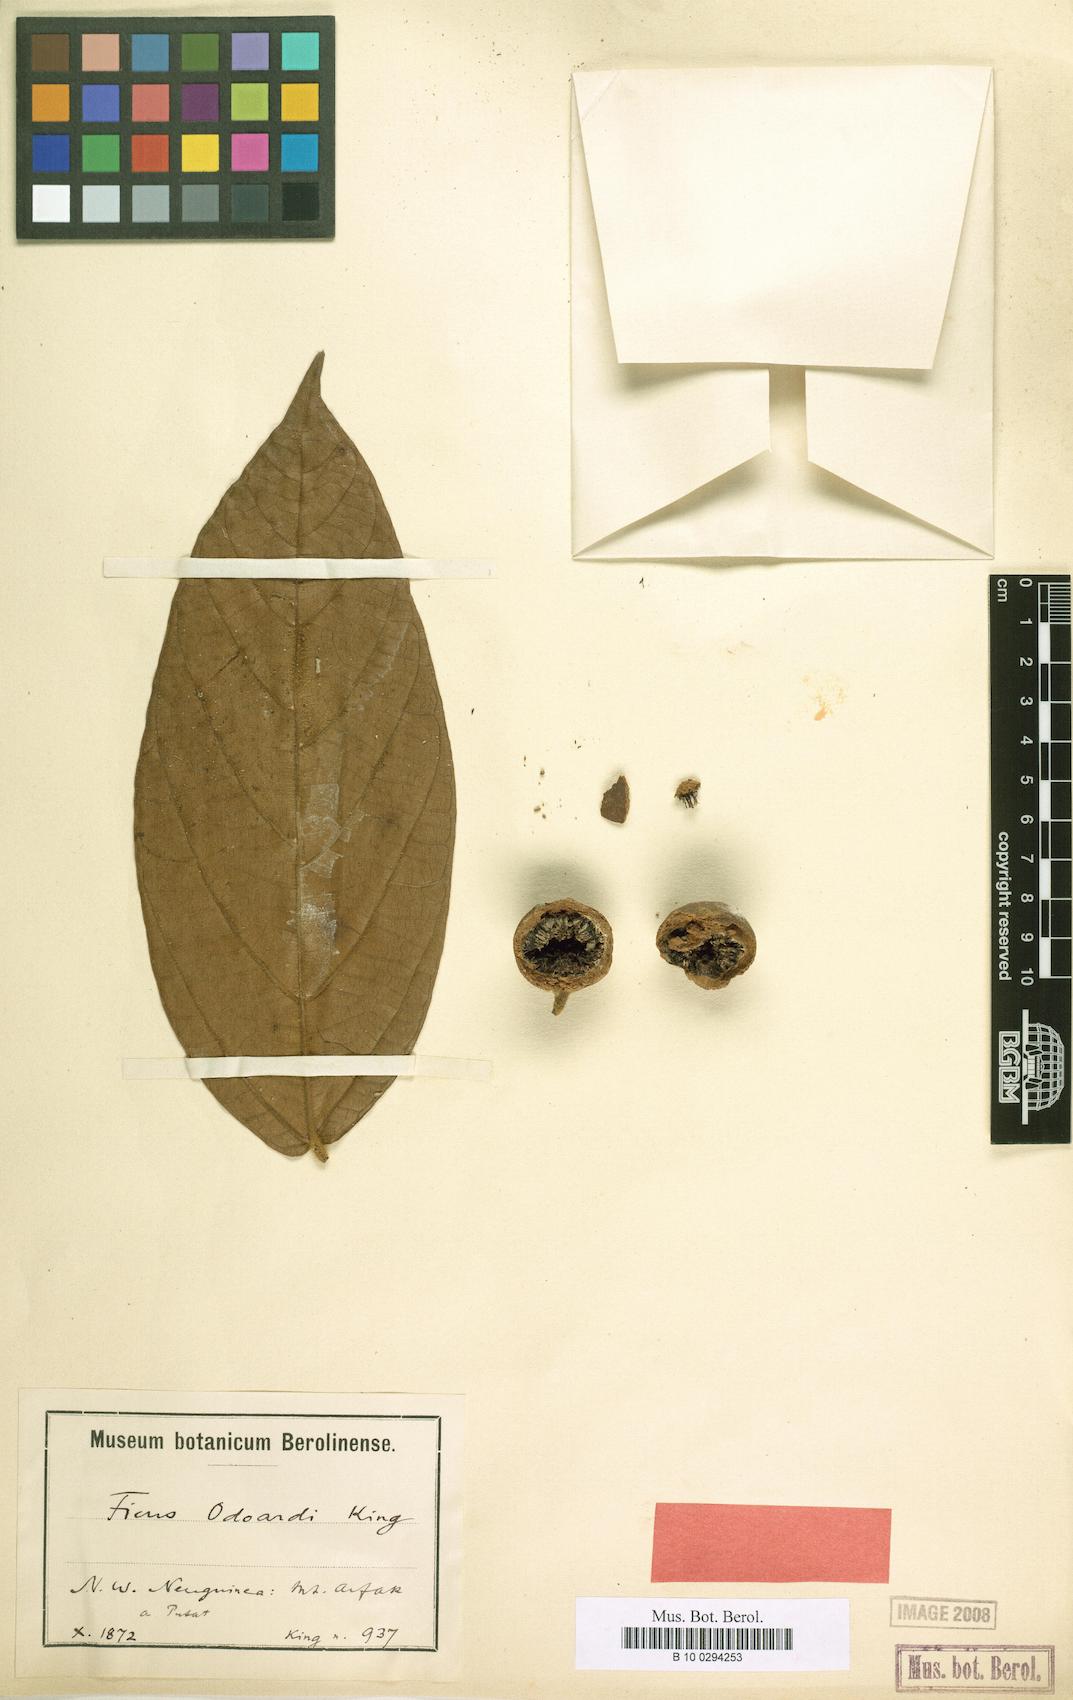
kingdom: Plantae
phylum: Tracheophyta
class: Magnoliopsida
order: Rosales
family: Moraceae
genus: Ficus
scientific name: Ficus odoardi
